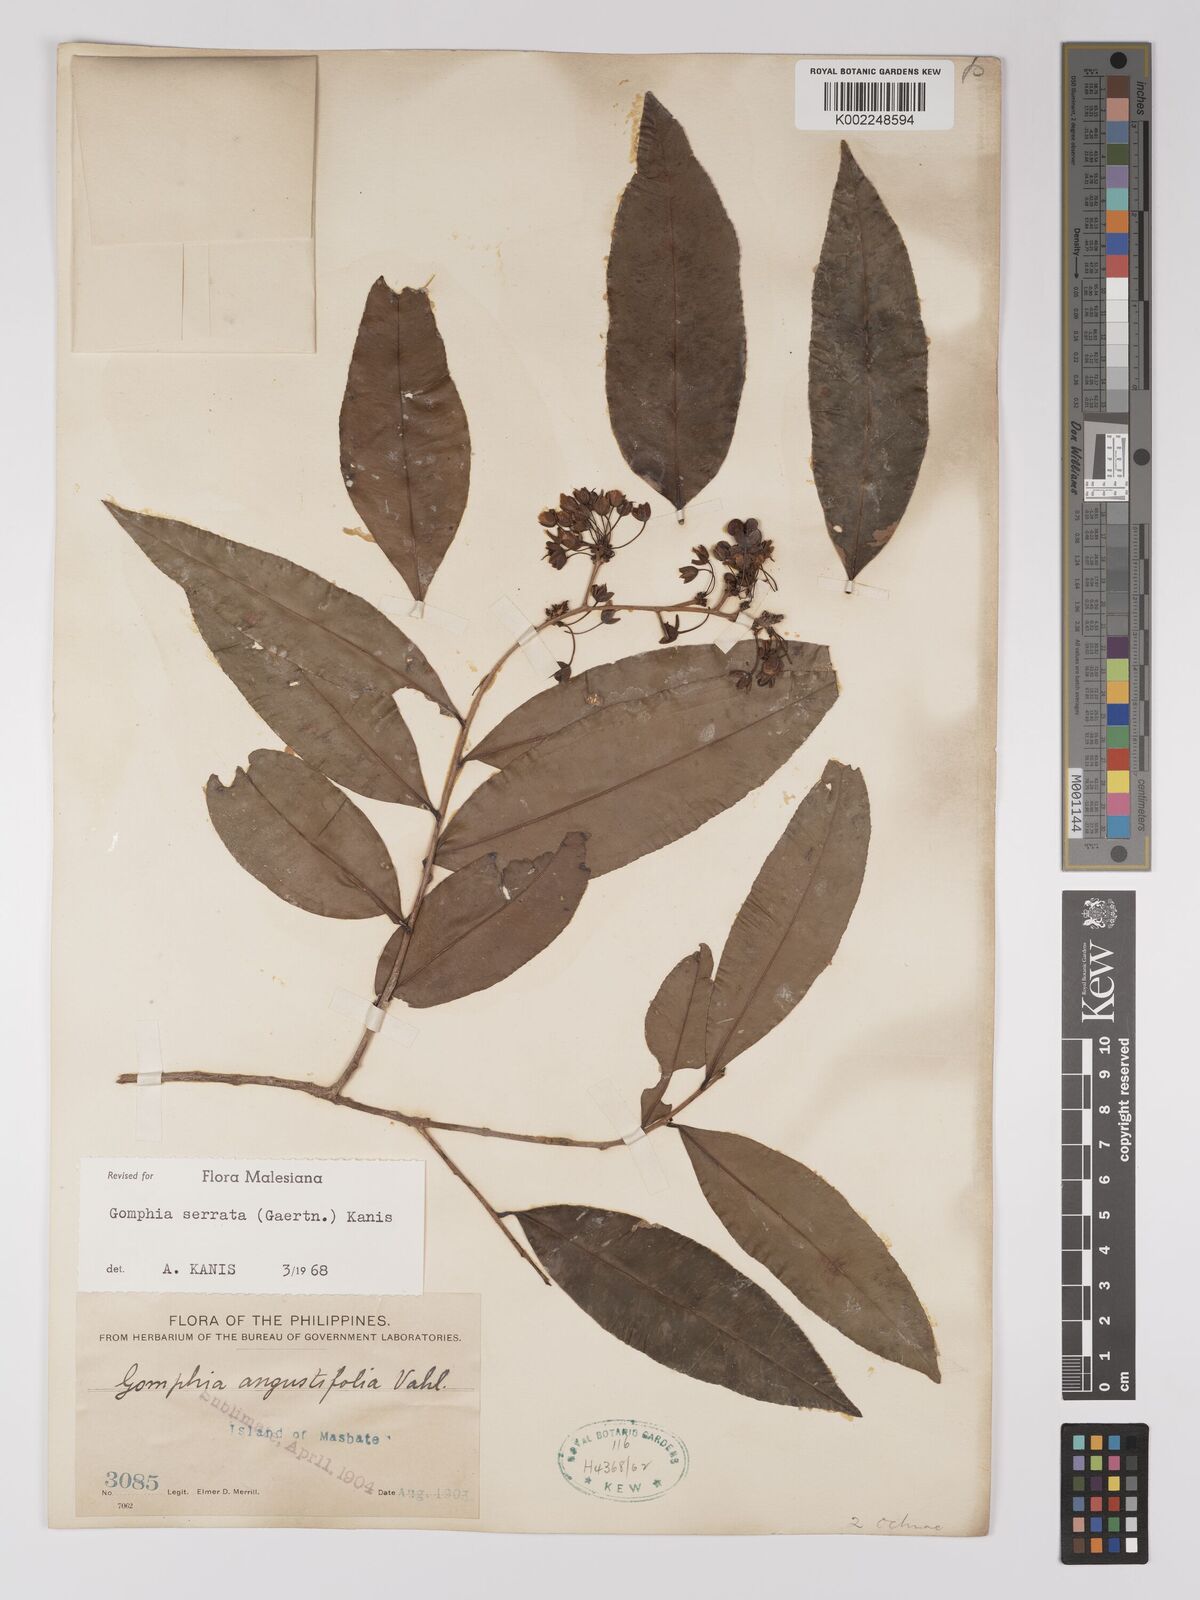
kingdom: Plantae
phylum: Tracheophyta
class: Magnoliopsida
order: Malpighiales
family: Ochnaceae
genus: Gomphia
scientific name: Gomphia serrata
